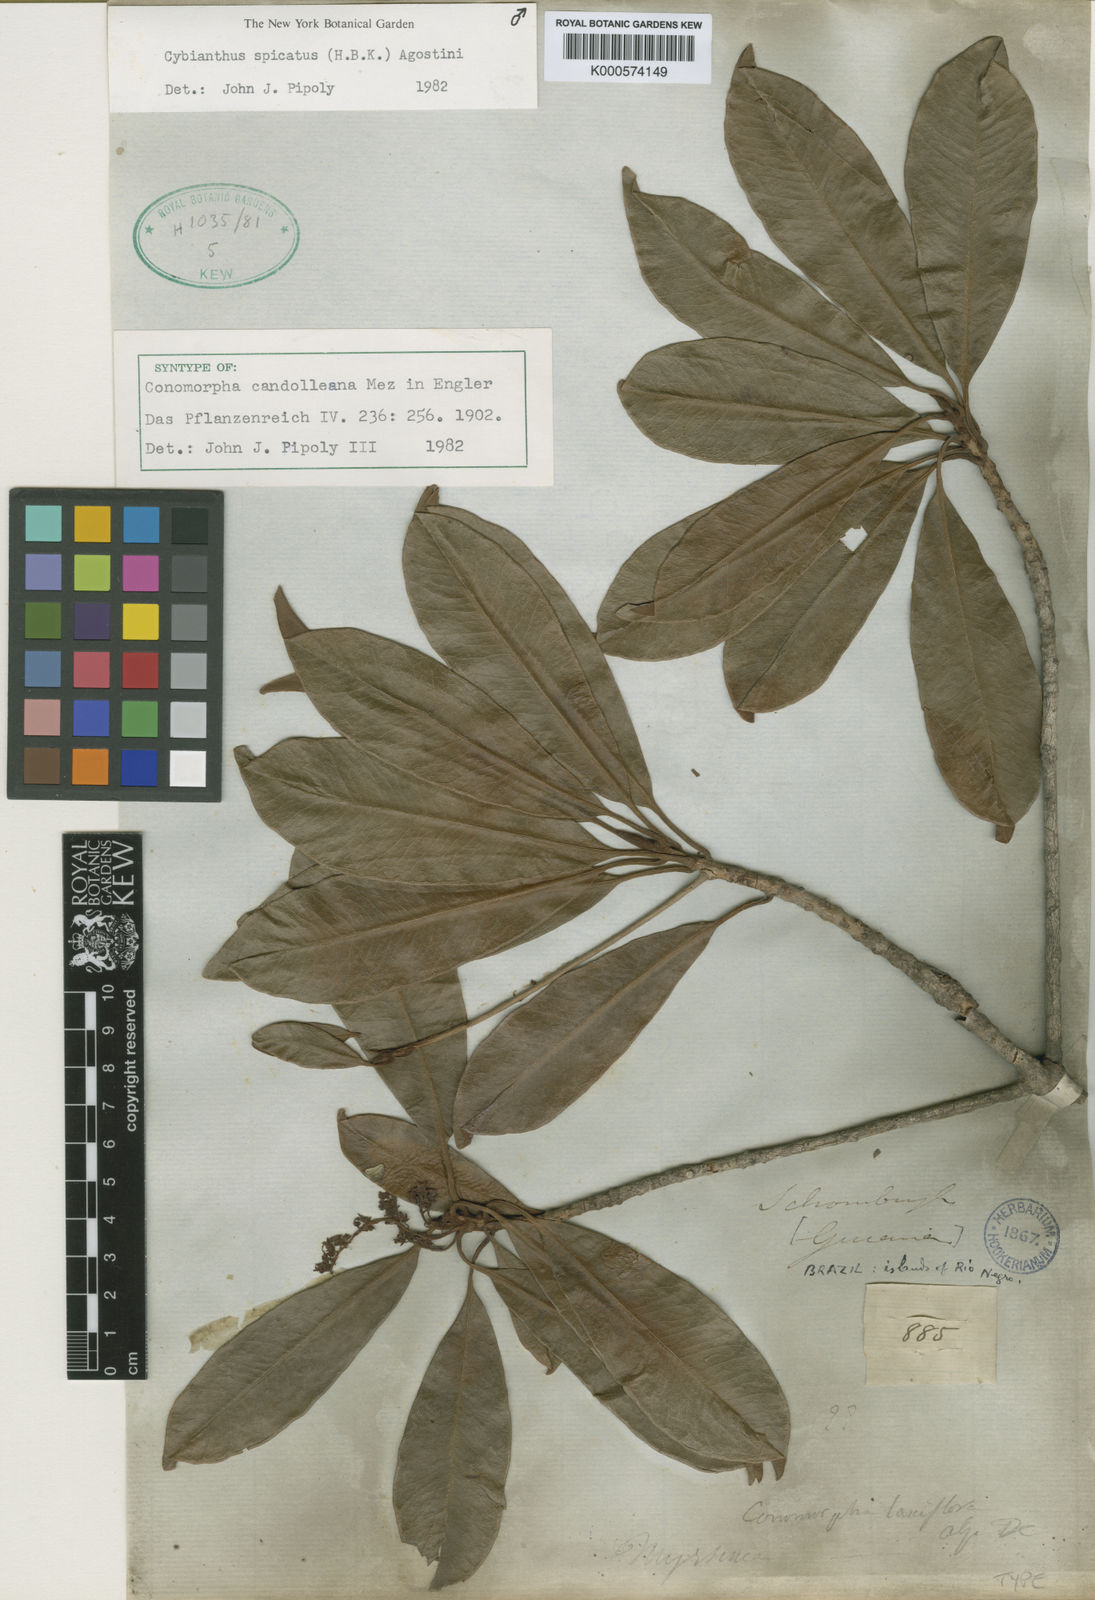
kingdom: Plantae
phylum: Tracheophyta
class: Magnoliopsida
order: Ericales
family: Primulaceae
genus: Cybianthus
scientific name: Cybianthus spicatus
